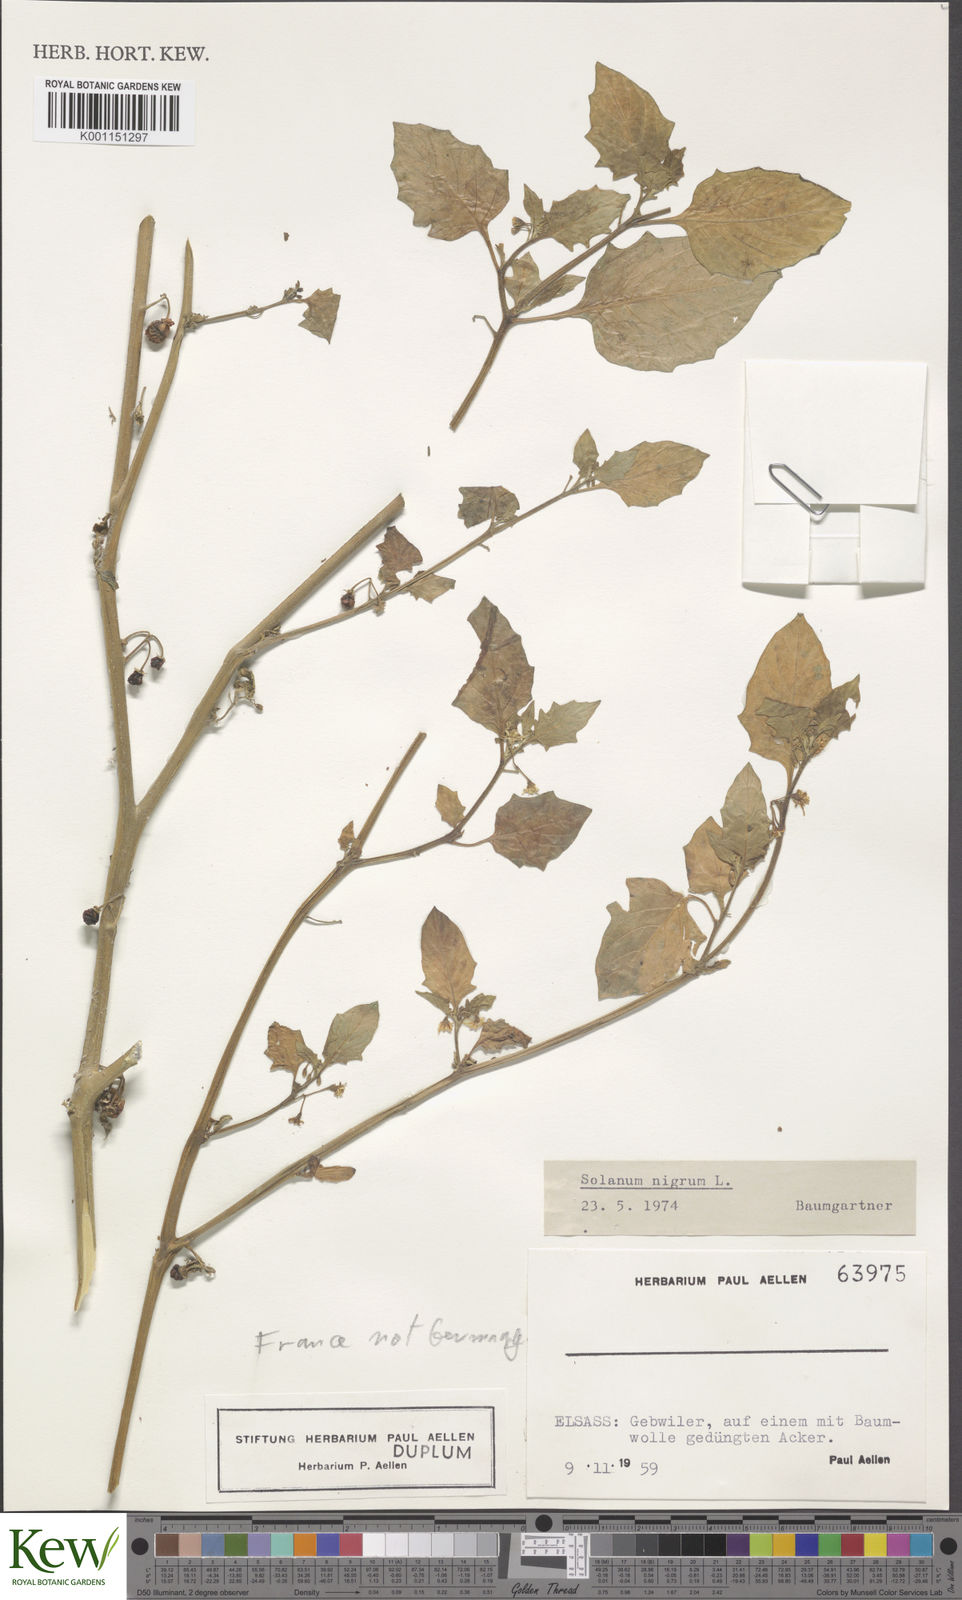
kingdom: Plantae
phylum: Tracheophyta
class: Magnoliopsida
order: Solanales
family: Solanaceae
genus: Solanum
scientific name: Solanum nigrum
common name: Black nightshade
